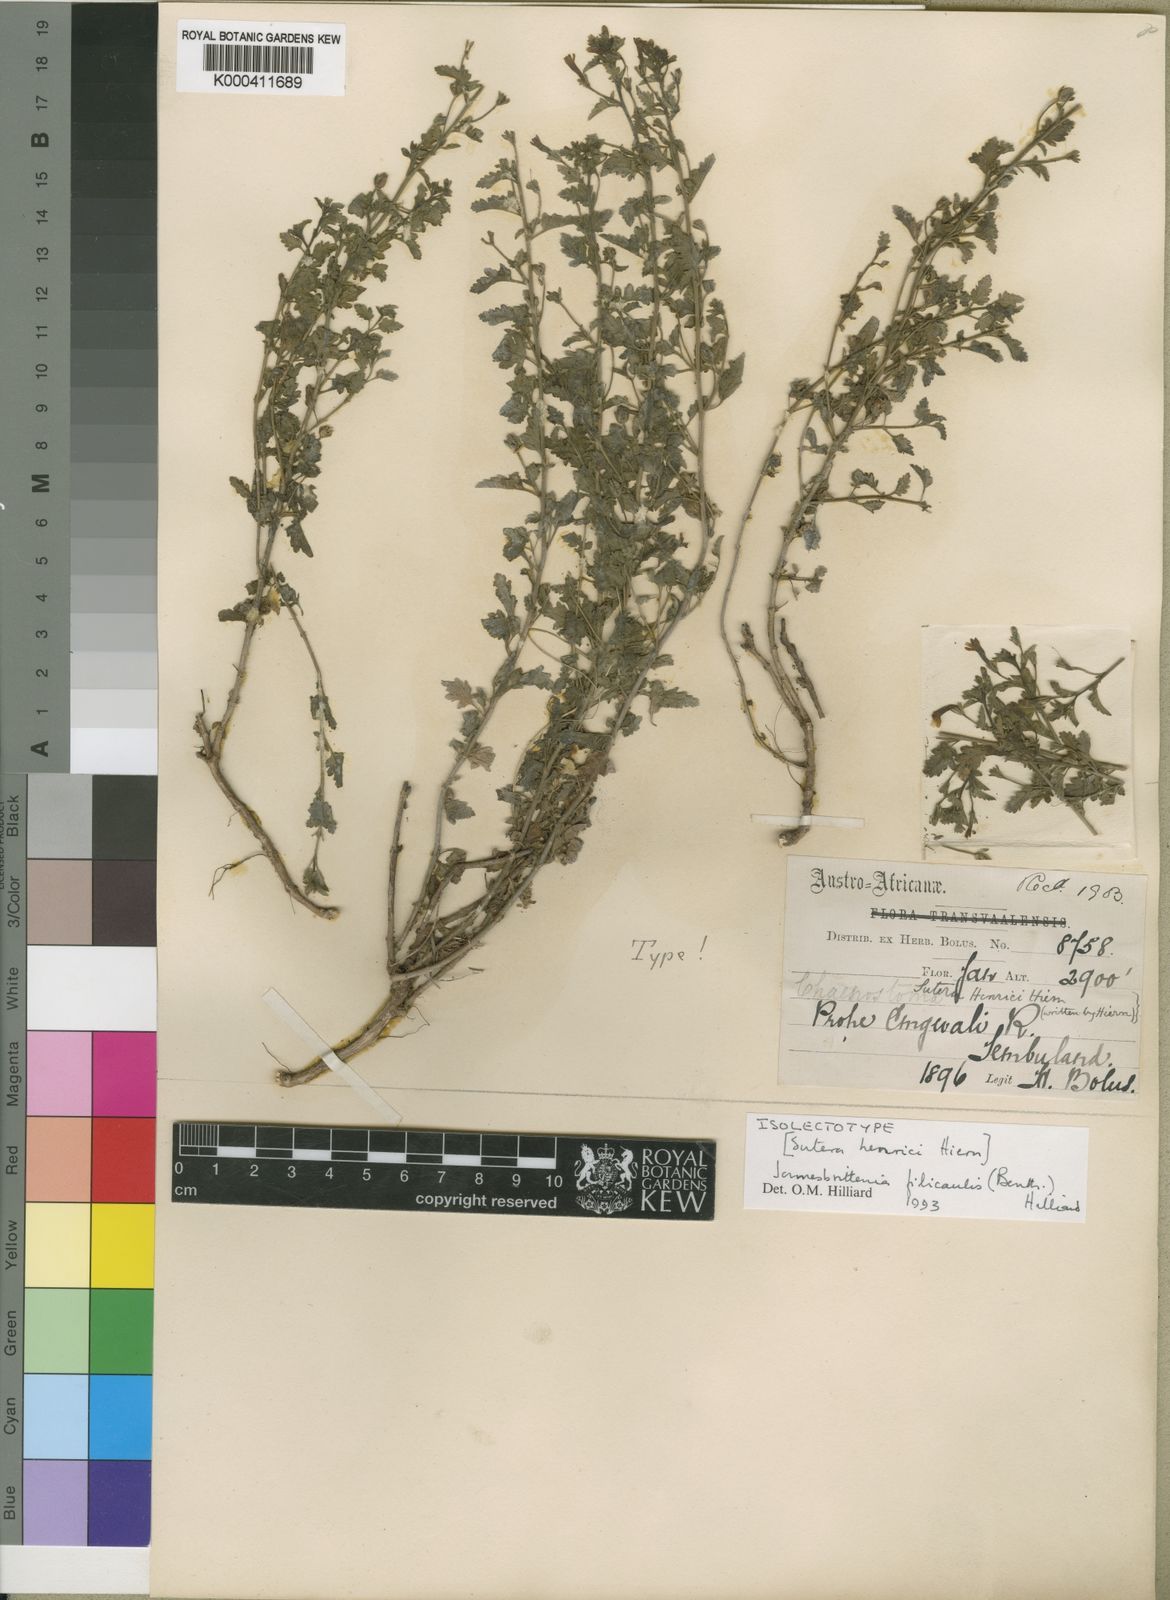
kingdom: Plantae
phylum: Tracheophyta
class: Magnoliopsida
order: Lamiales
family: Scrophulariaceae
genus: Jamesbrittenia
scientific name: Jamesbrittenia filicaulis
